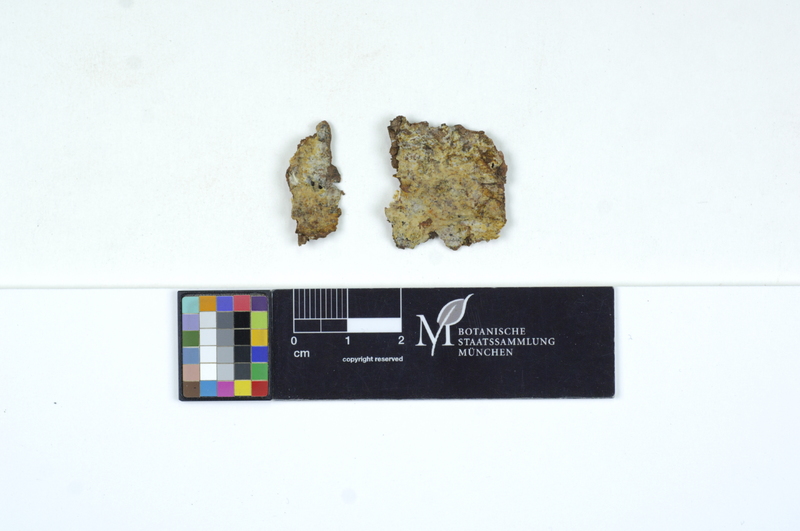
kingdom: Fungi
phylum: Basidiomycota
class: Agaricomycetes
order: Hymenochaetales
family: Rickenellaceae
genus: Peniophorella
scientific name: Peniophorella praetermissa
